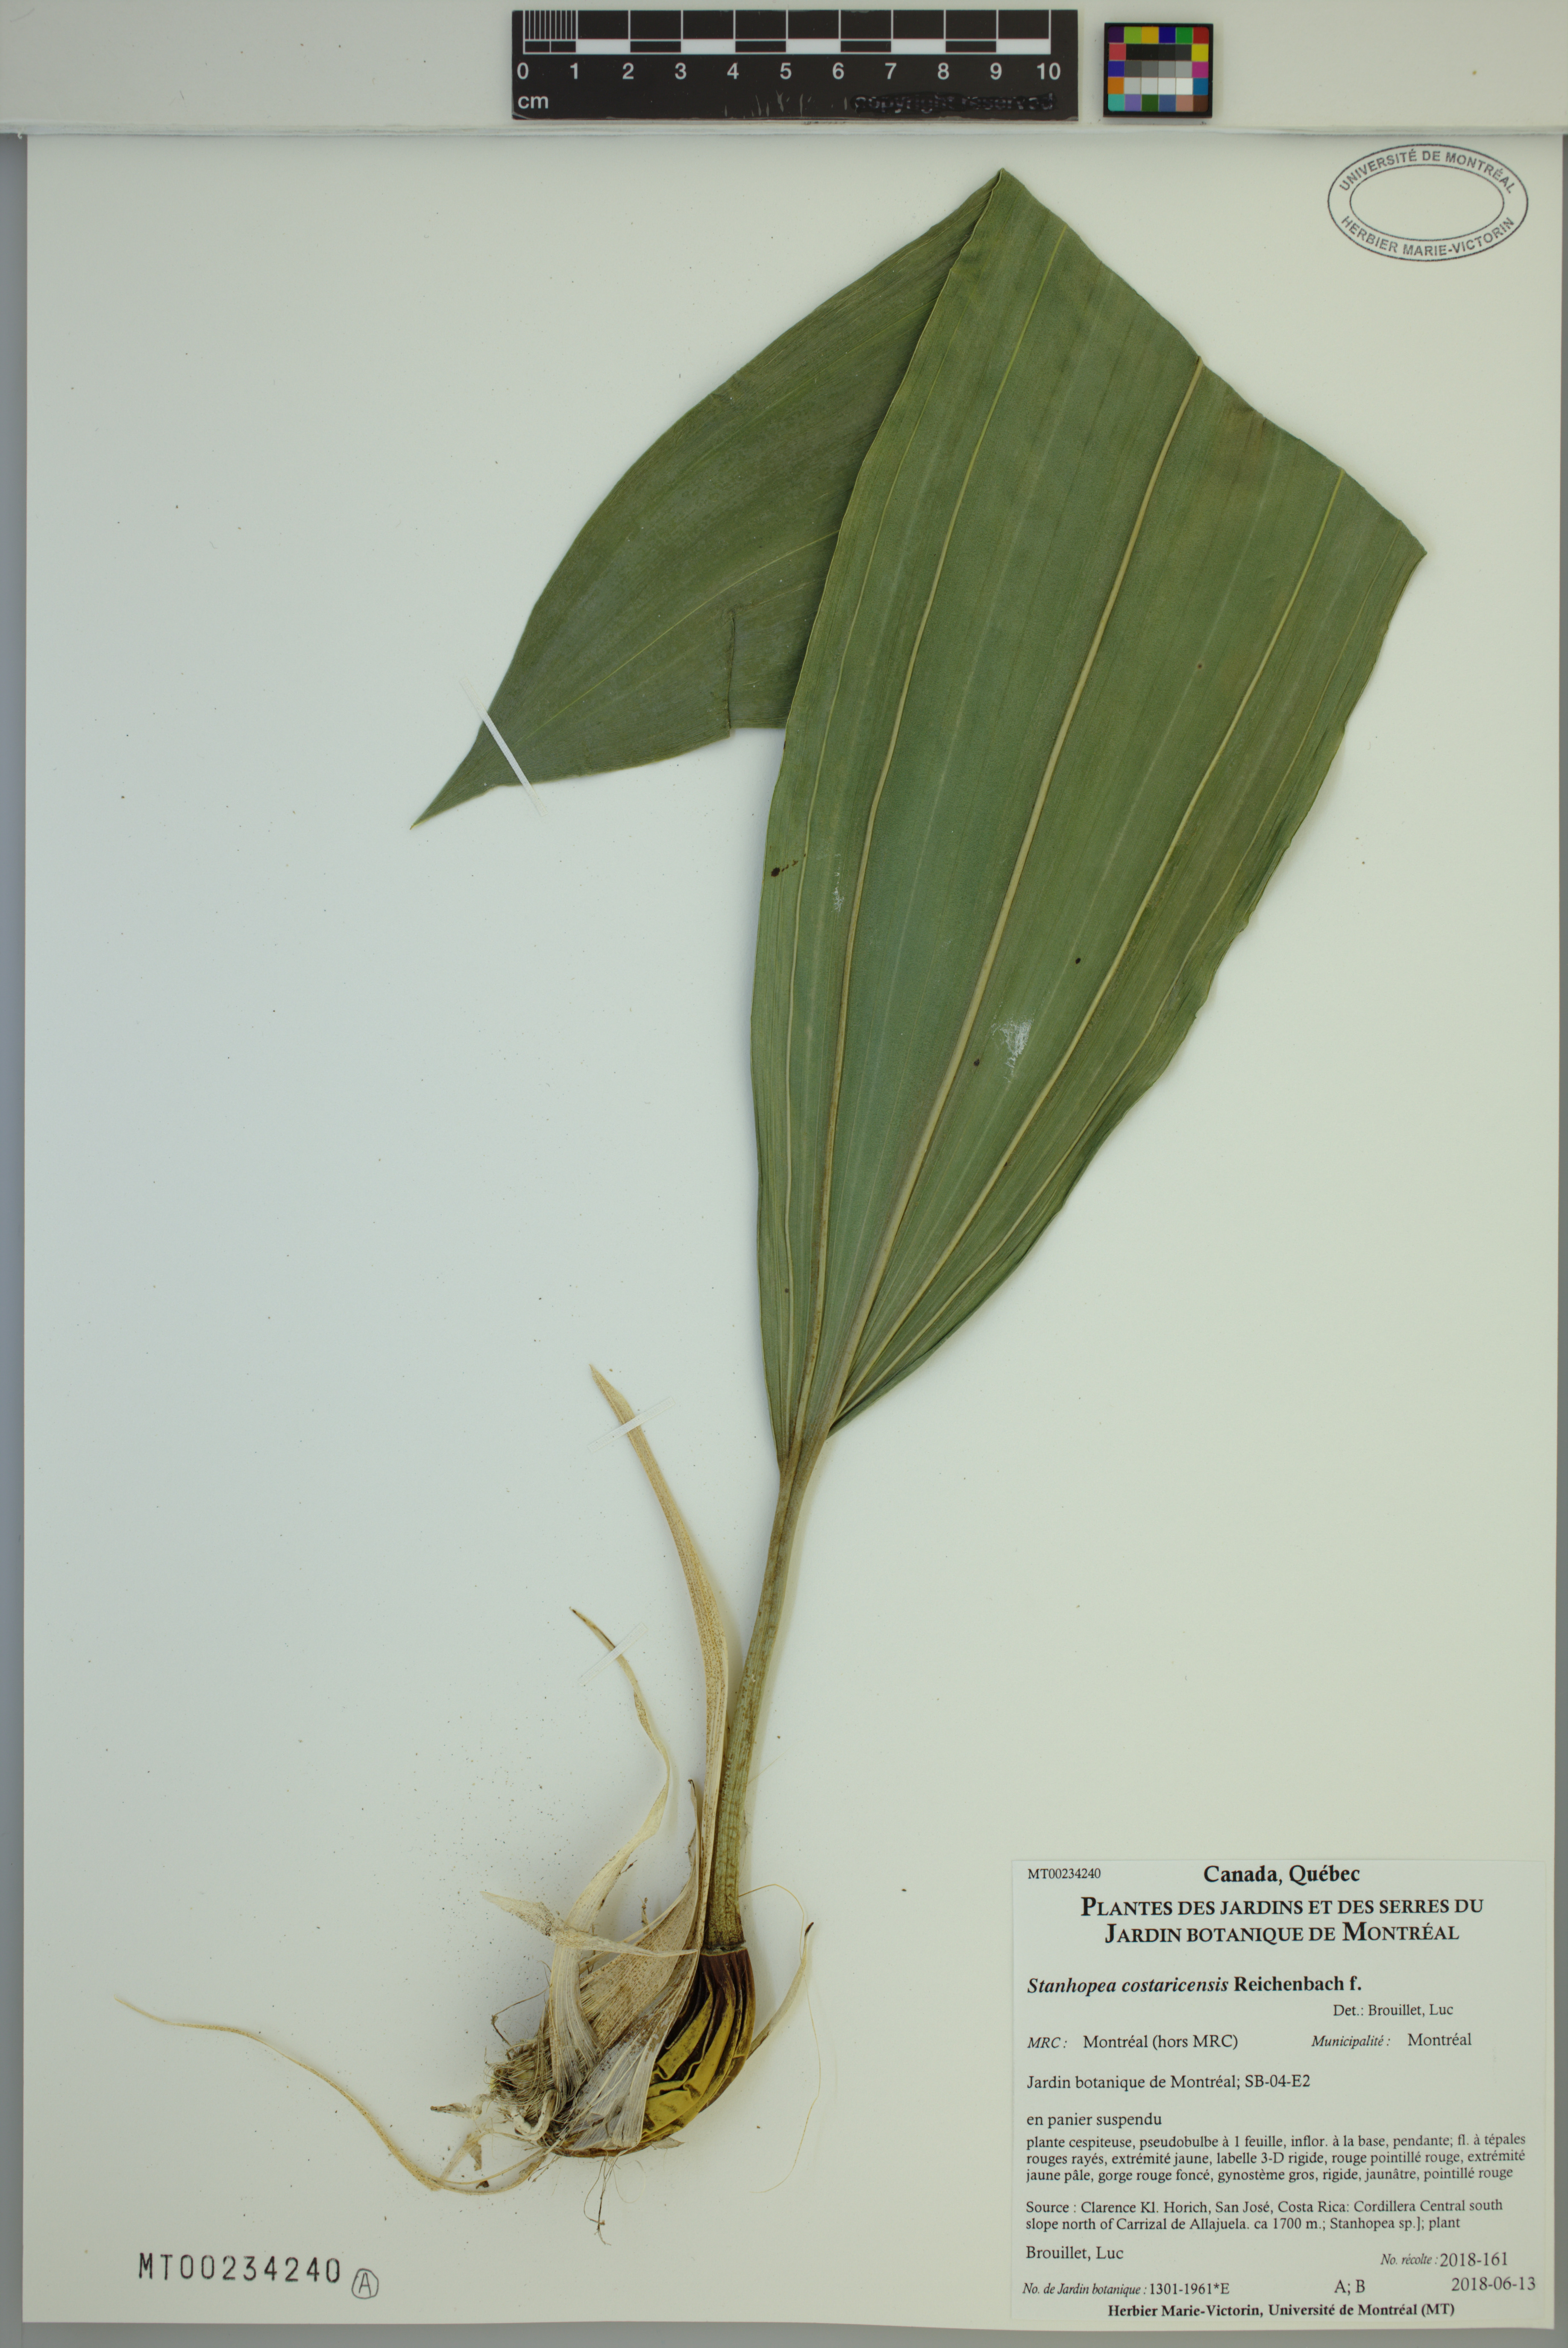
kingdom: Plantae
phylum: Tracheophyta
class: Liliopsida
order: Asparagales
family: Orchidaceae
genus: Stanhopea
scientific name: Stanhopea costaricensis
